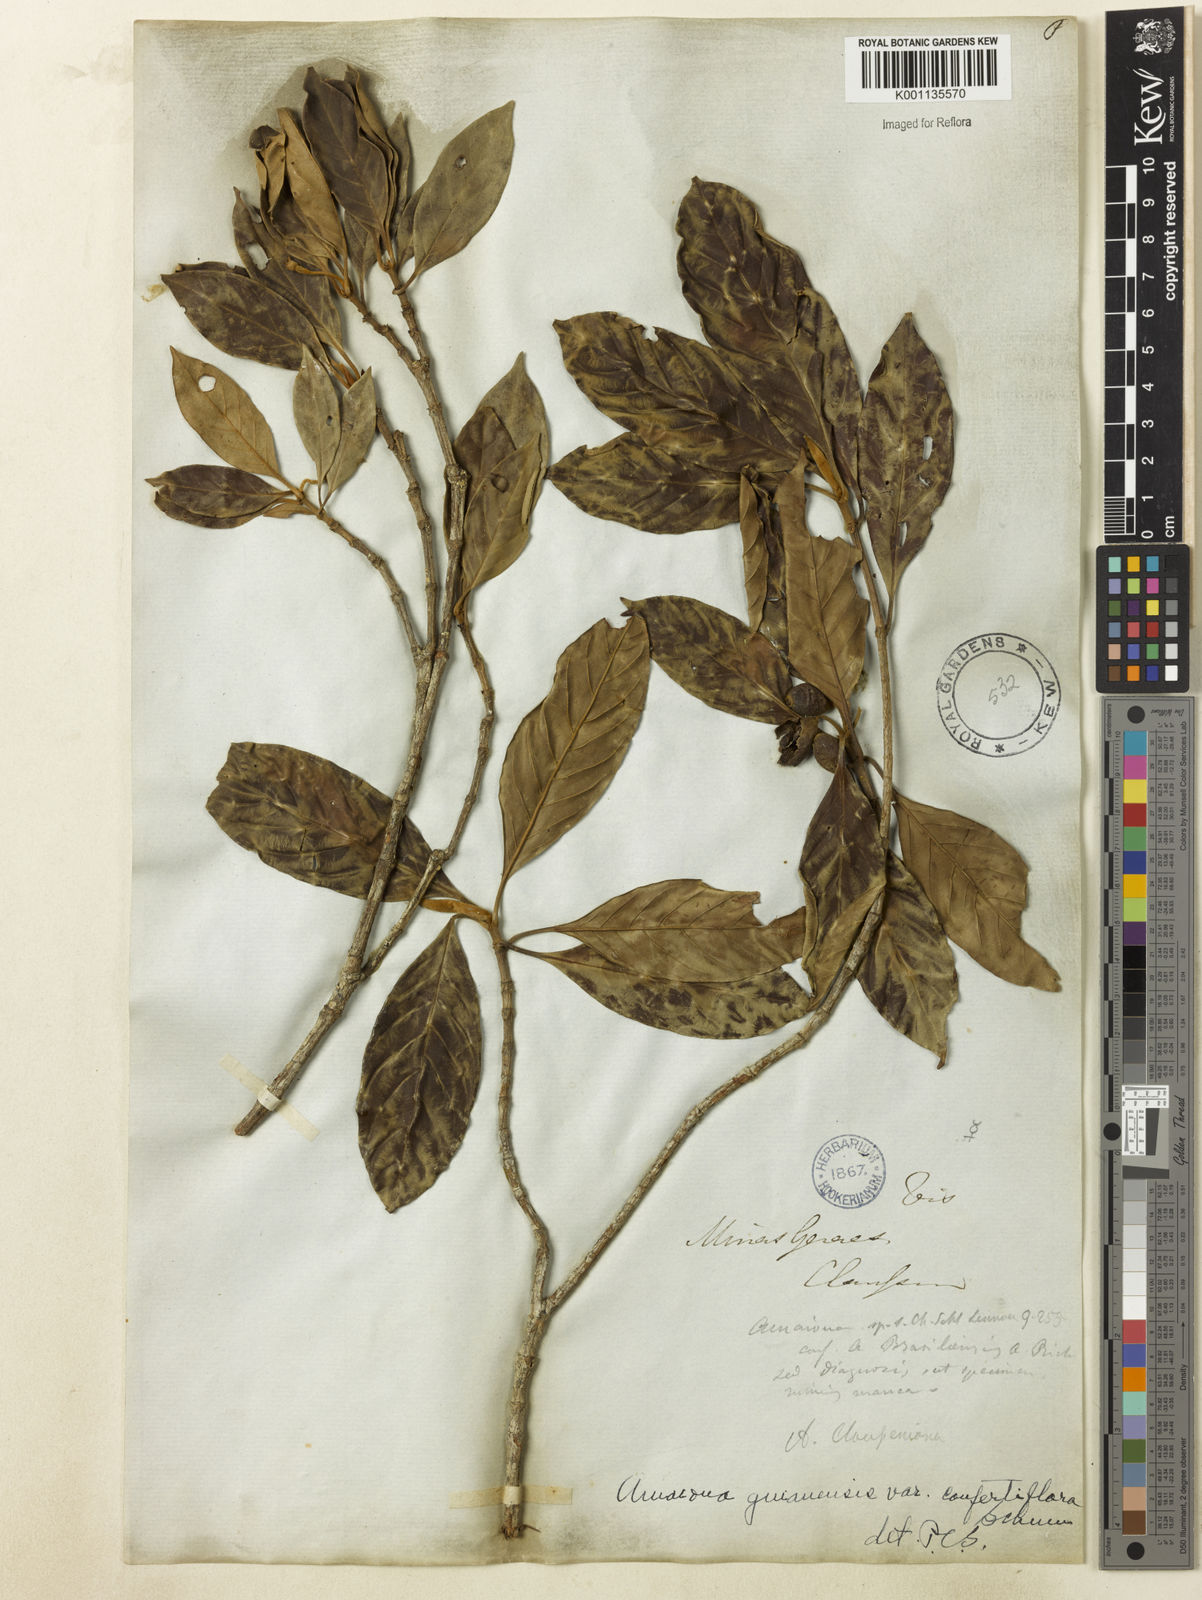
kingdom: Plantae
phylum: Tracheophyta
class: Magnoliopsida
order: Gentianales
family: Rubiaceae
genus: Amaioua
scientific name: Amaioua intermedia
